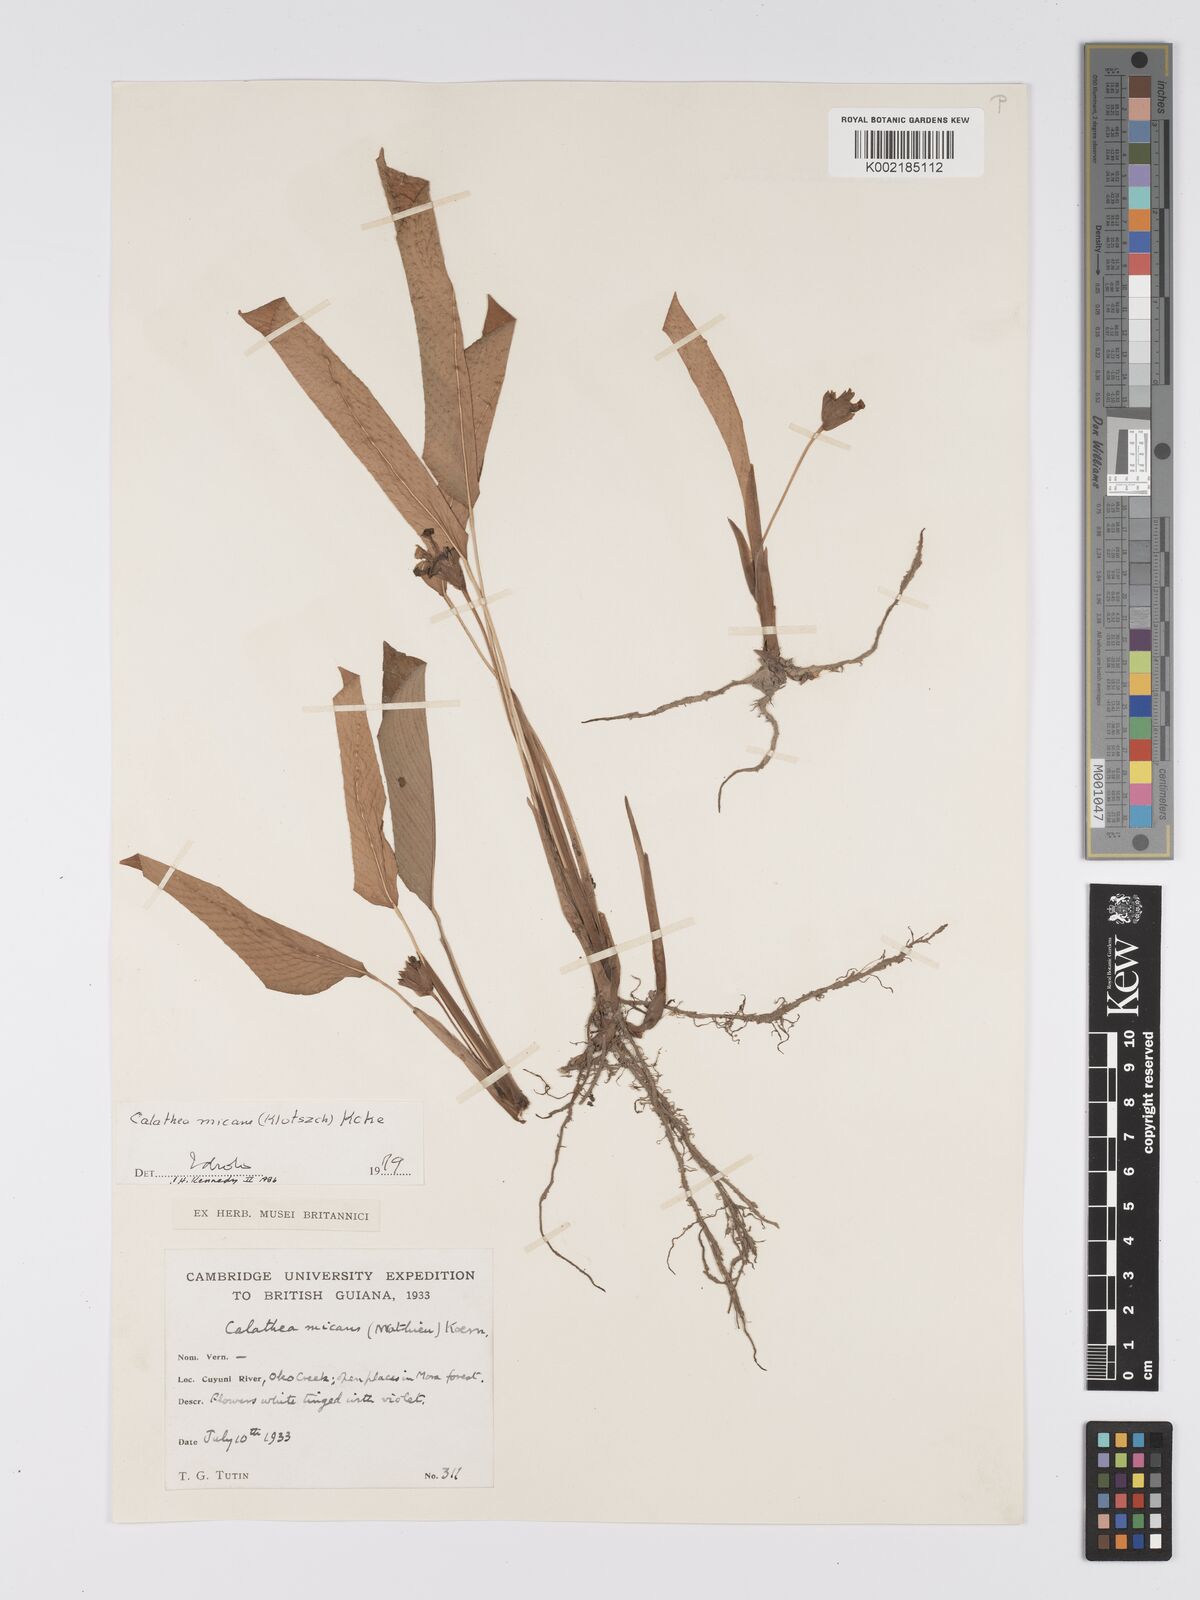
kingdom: Plantae
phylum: Tracheophyta
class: Liliopsida
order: Zingiberales
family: Marantaceae
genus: Goeppertia
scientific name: Goeppertia micans
